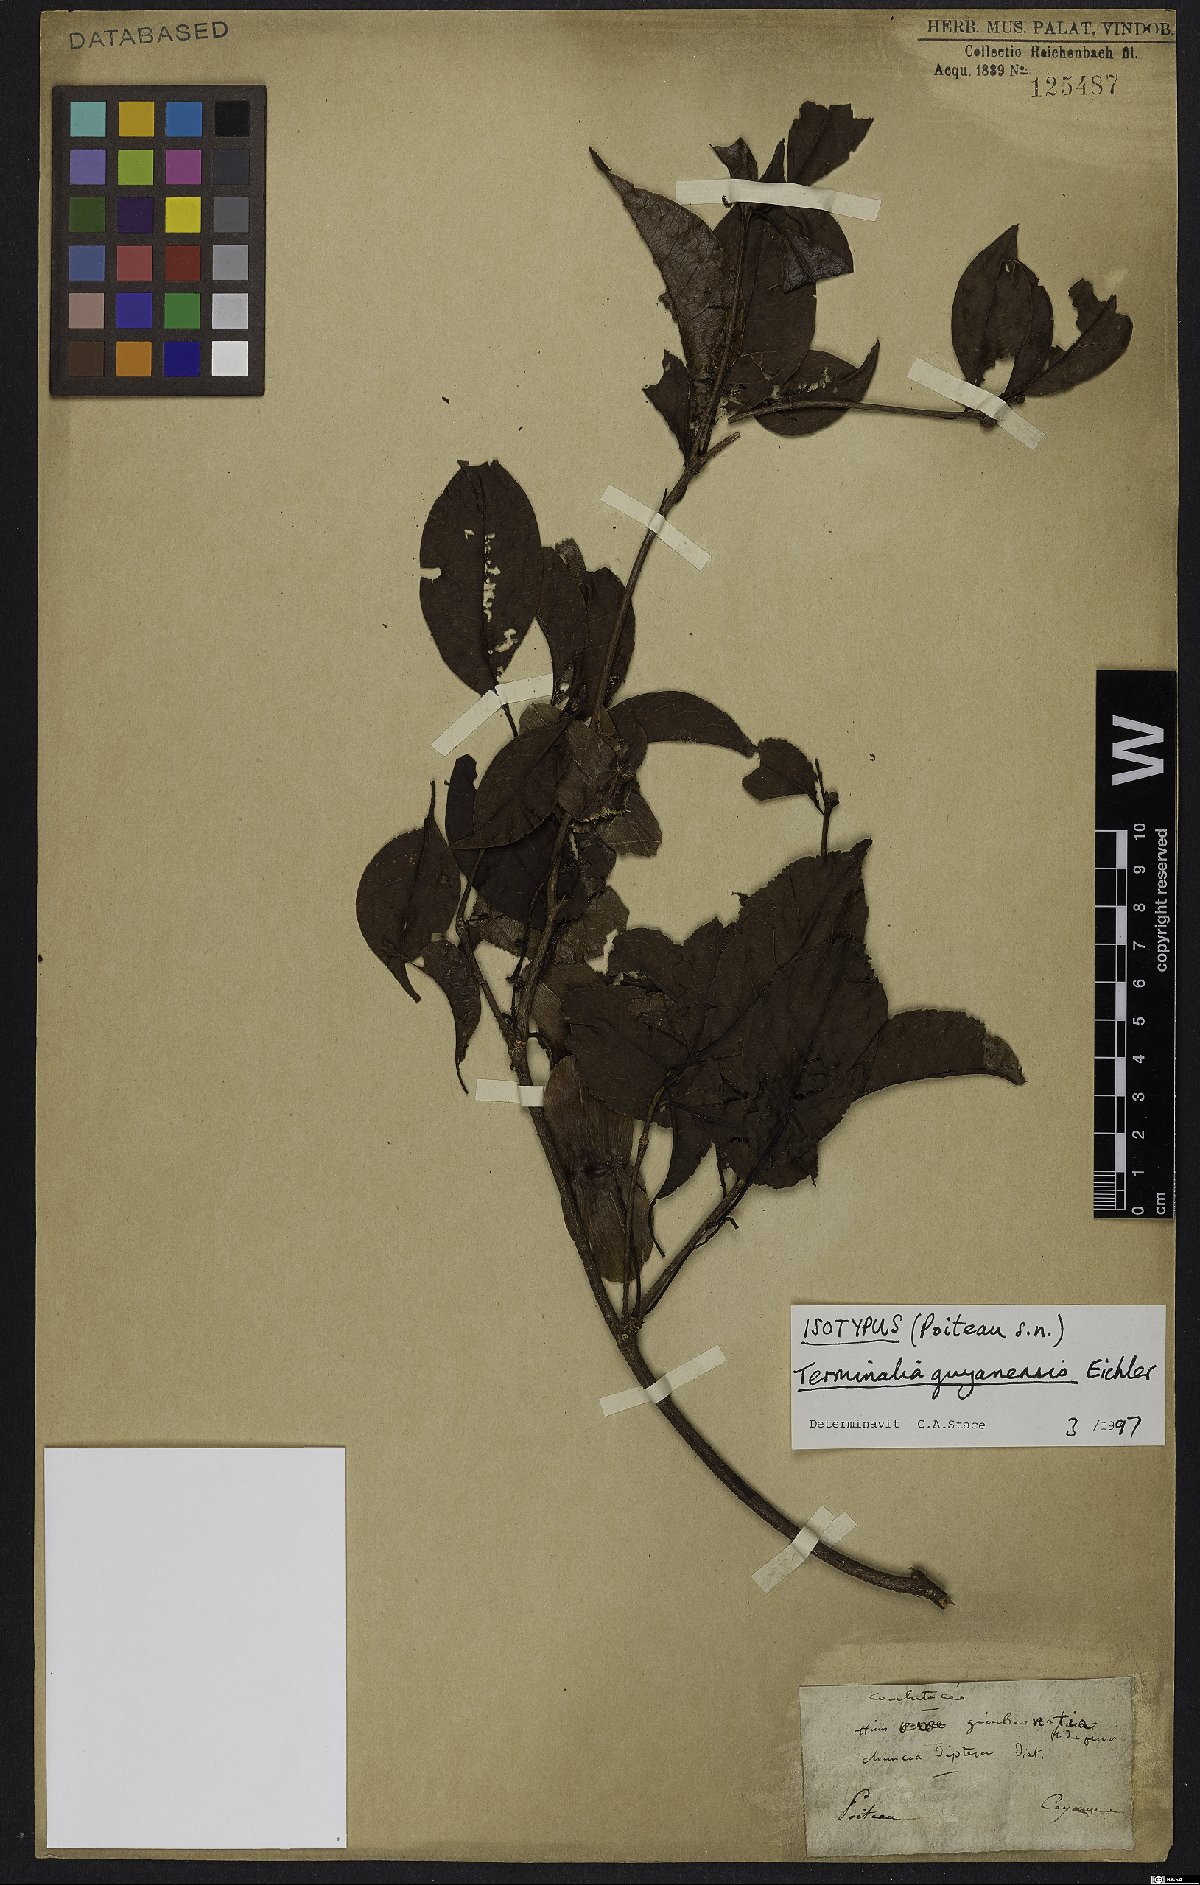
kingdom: Plantae
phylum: Tracheophyta
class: Magnoliopsida
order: Myrtales
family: Combretaceae
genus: Terminalia
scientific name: Terminalia guyanensis
